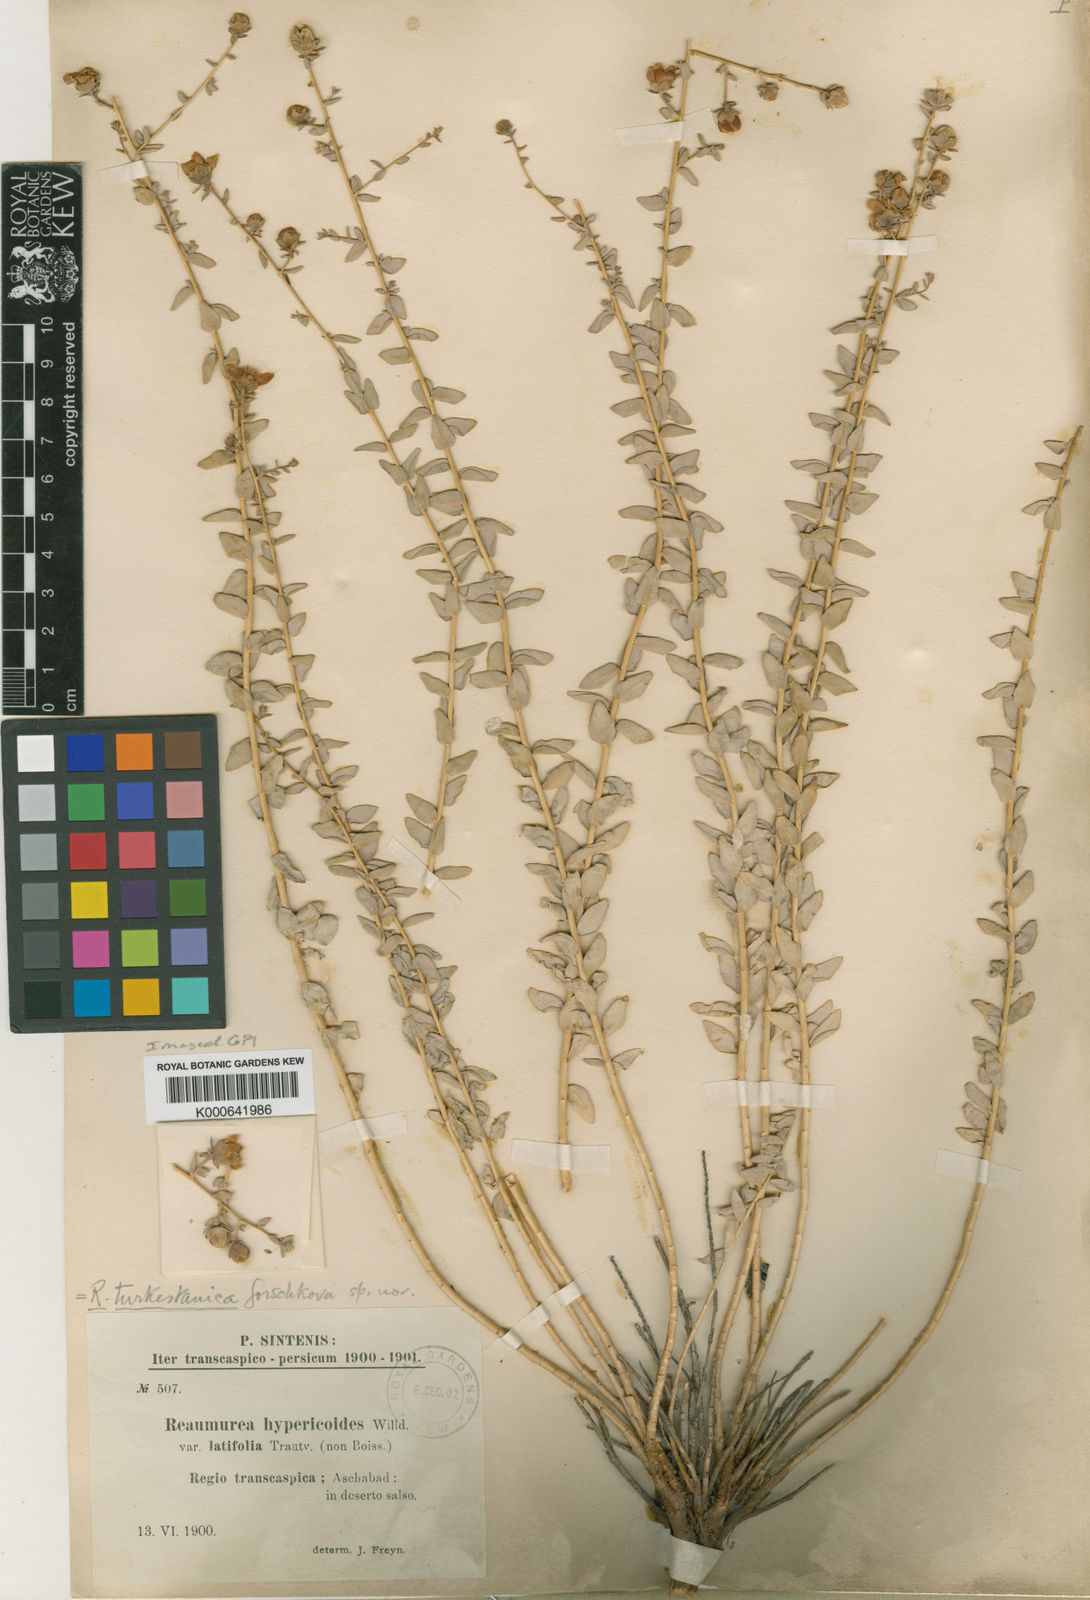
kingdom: Plantae
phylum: Tracheophyta
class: Magnoliopsida
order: Caryophyllales
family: Tamaricaceae
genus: Reaumuria
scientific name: Reaumuria turkestanica
